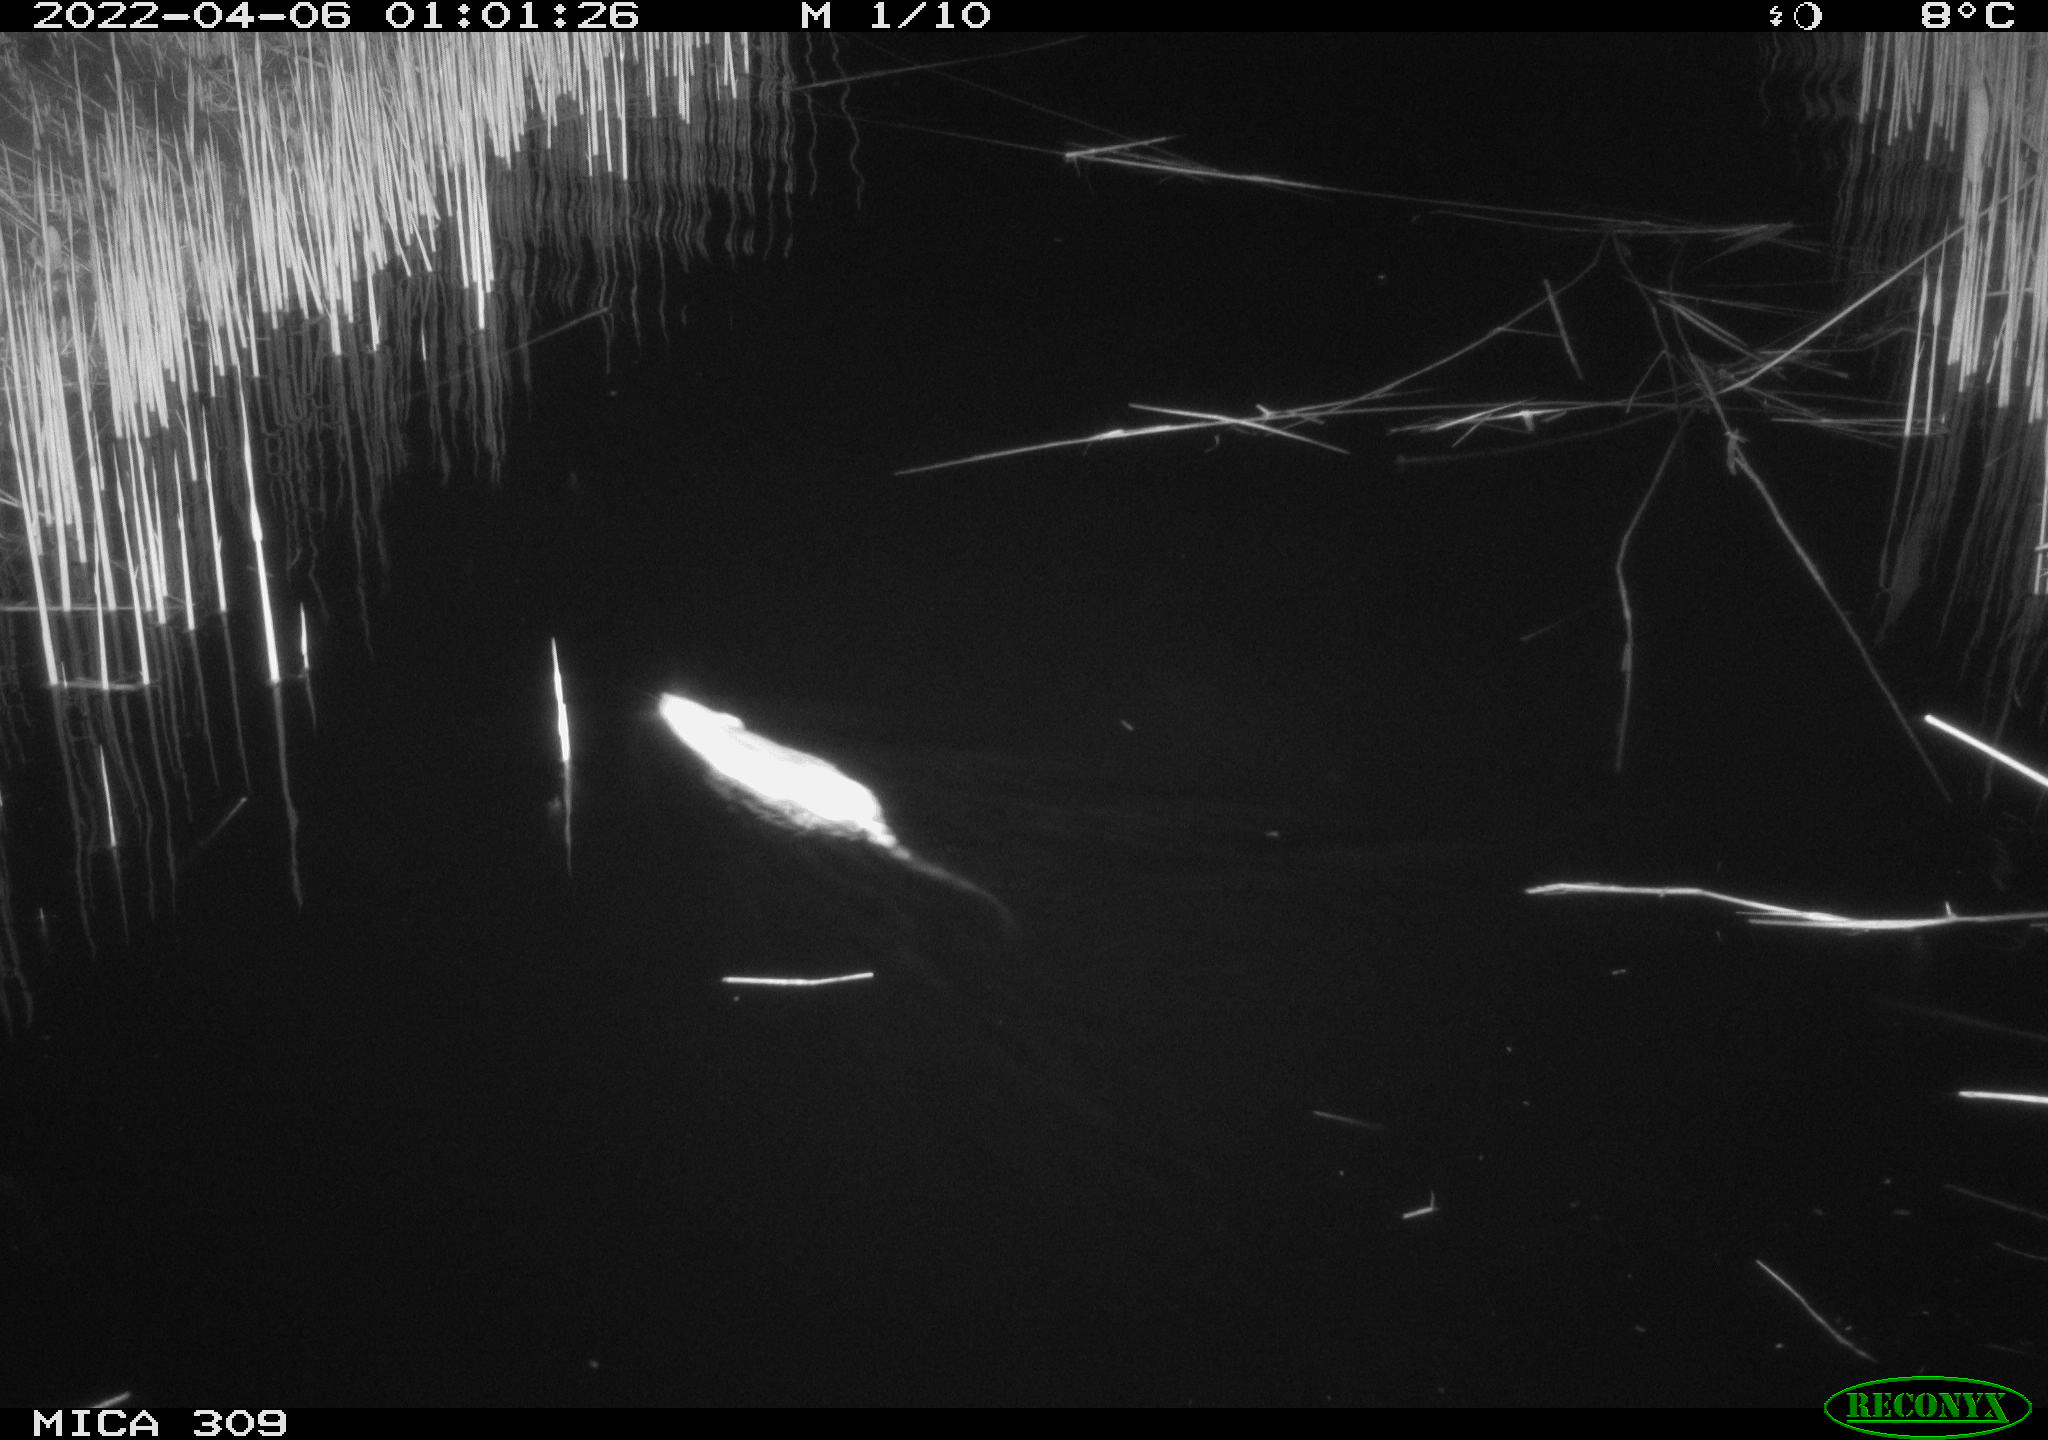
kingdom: Animalia
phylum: Chordata
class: Mammalia
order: Rodentia
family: Muridae
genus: Rattus
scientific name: Rattus norvegicus
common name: Brown rat
